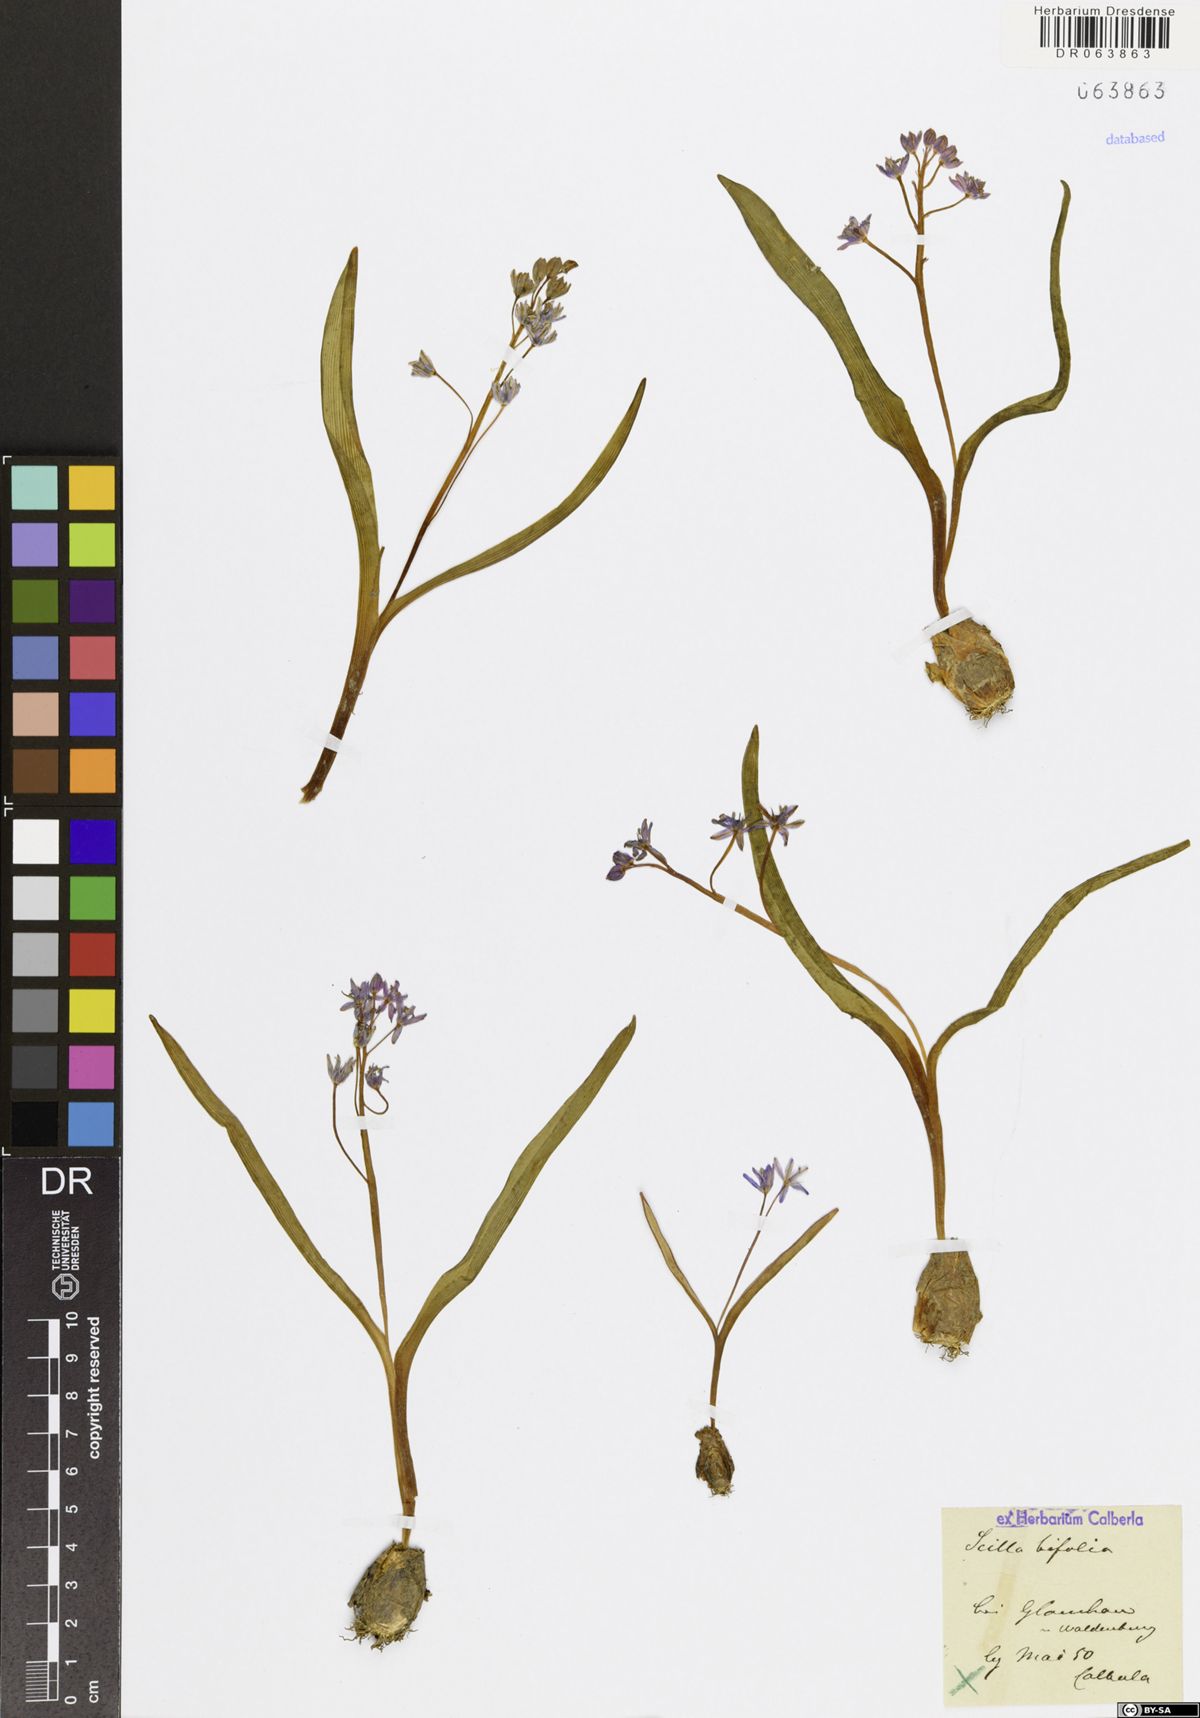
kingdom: Plantae
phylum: Tracheophyta
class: Liliopsida
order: Asparagales
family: Asparagaceae
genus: Scilla
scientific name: Scilla bifolia
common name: Alpine squill
